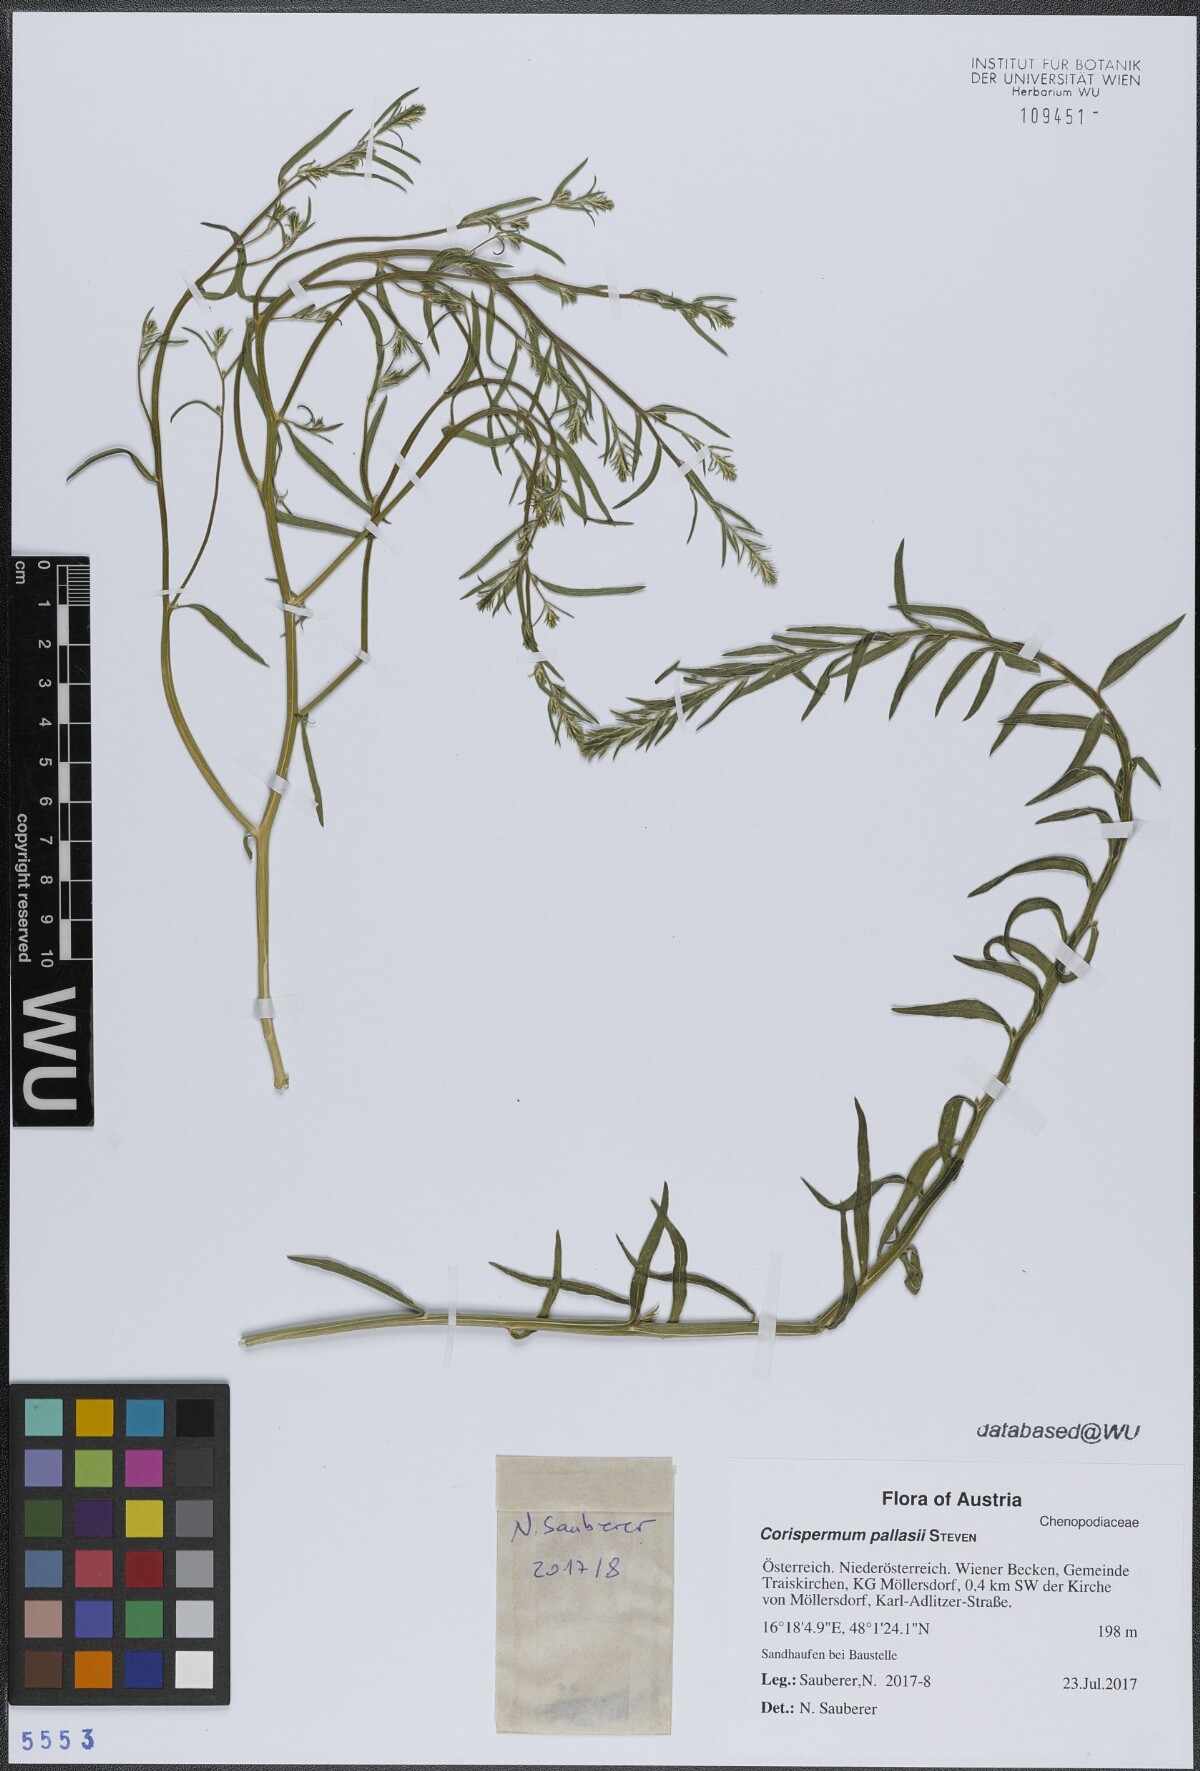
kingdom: Plantae
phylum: Tracheophyta
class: Magnoliopsida
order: Caryophyllales
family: Amaranthaceae
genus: Corispermum
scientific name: Corispermum pallasii
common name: Siberian bugseed
